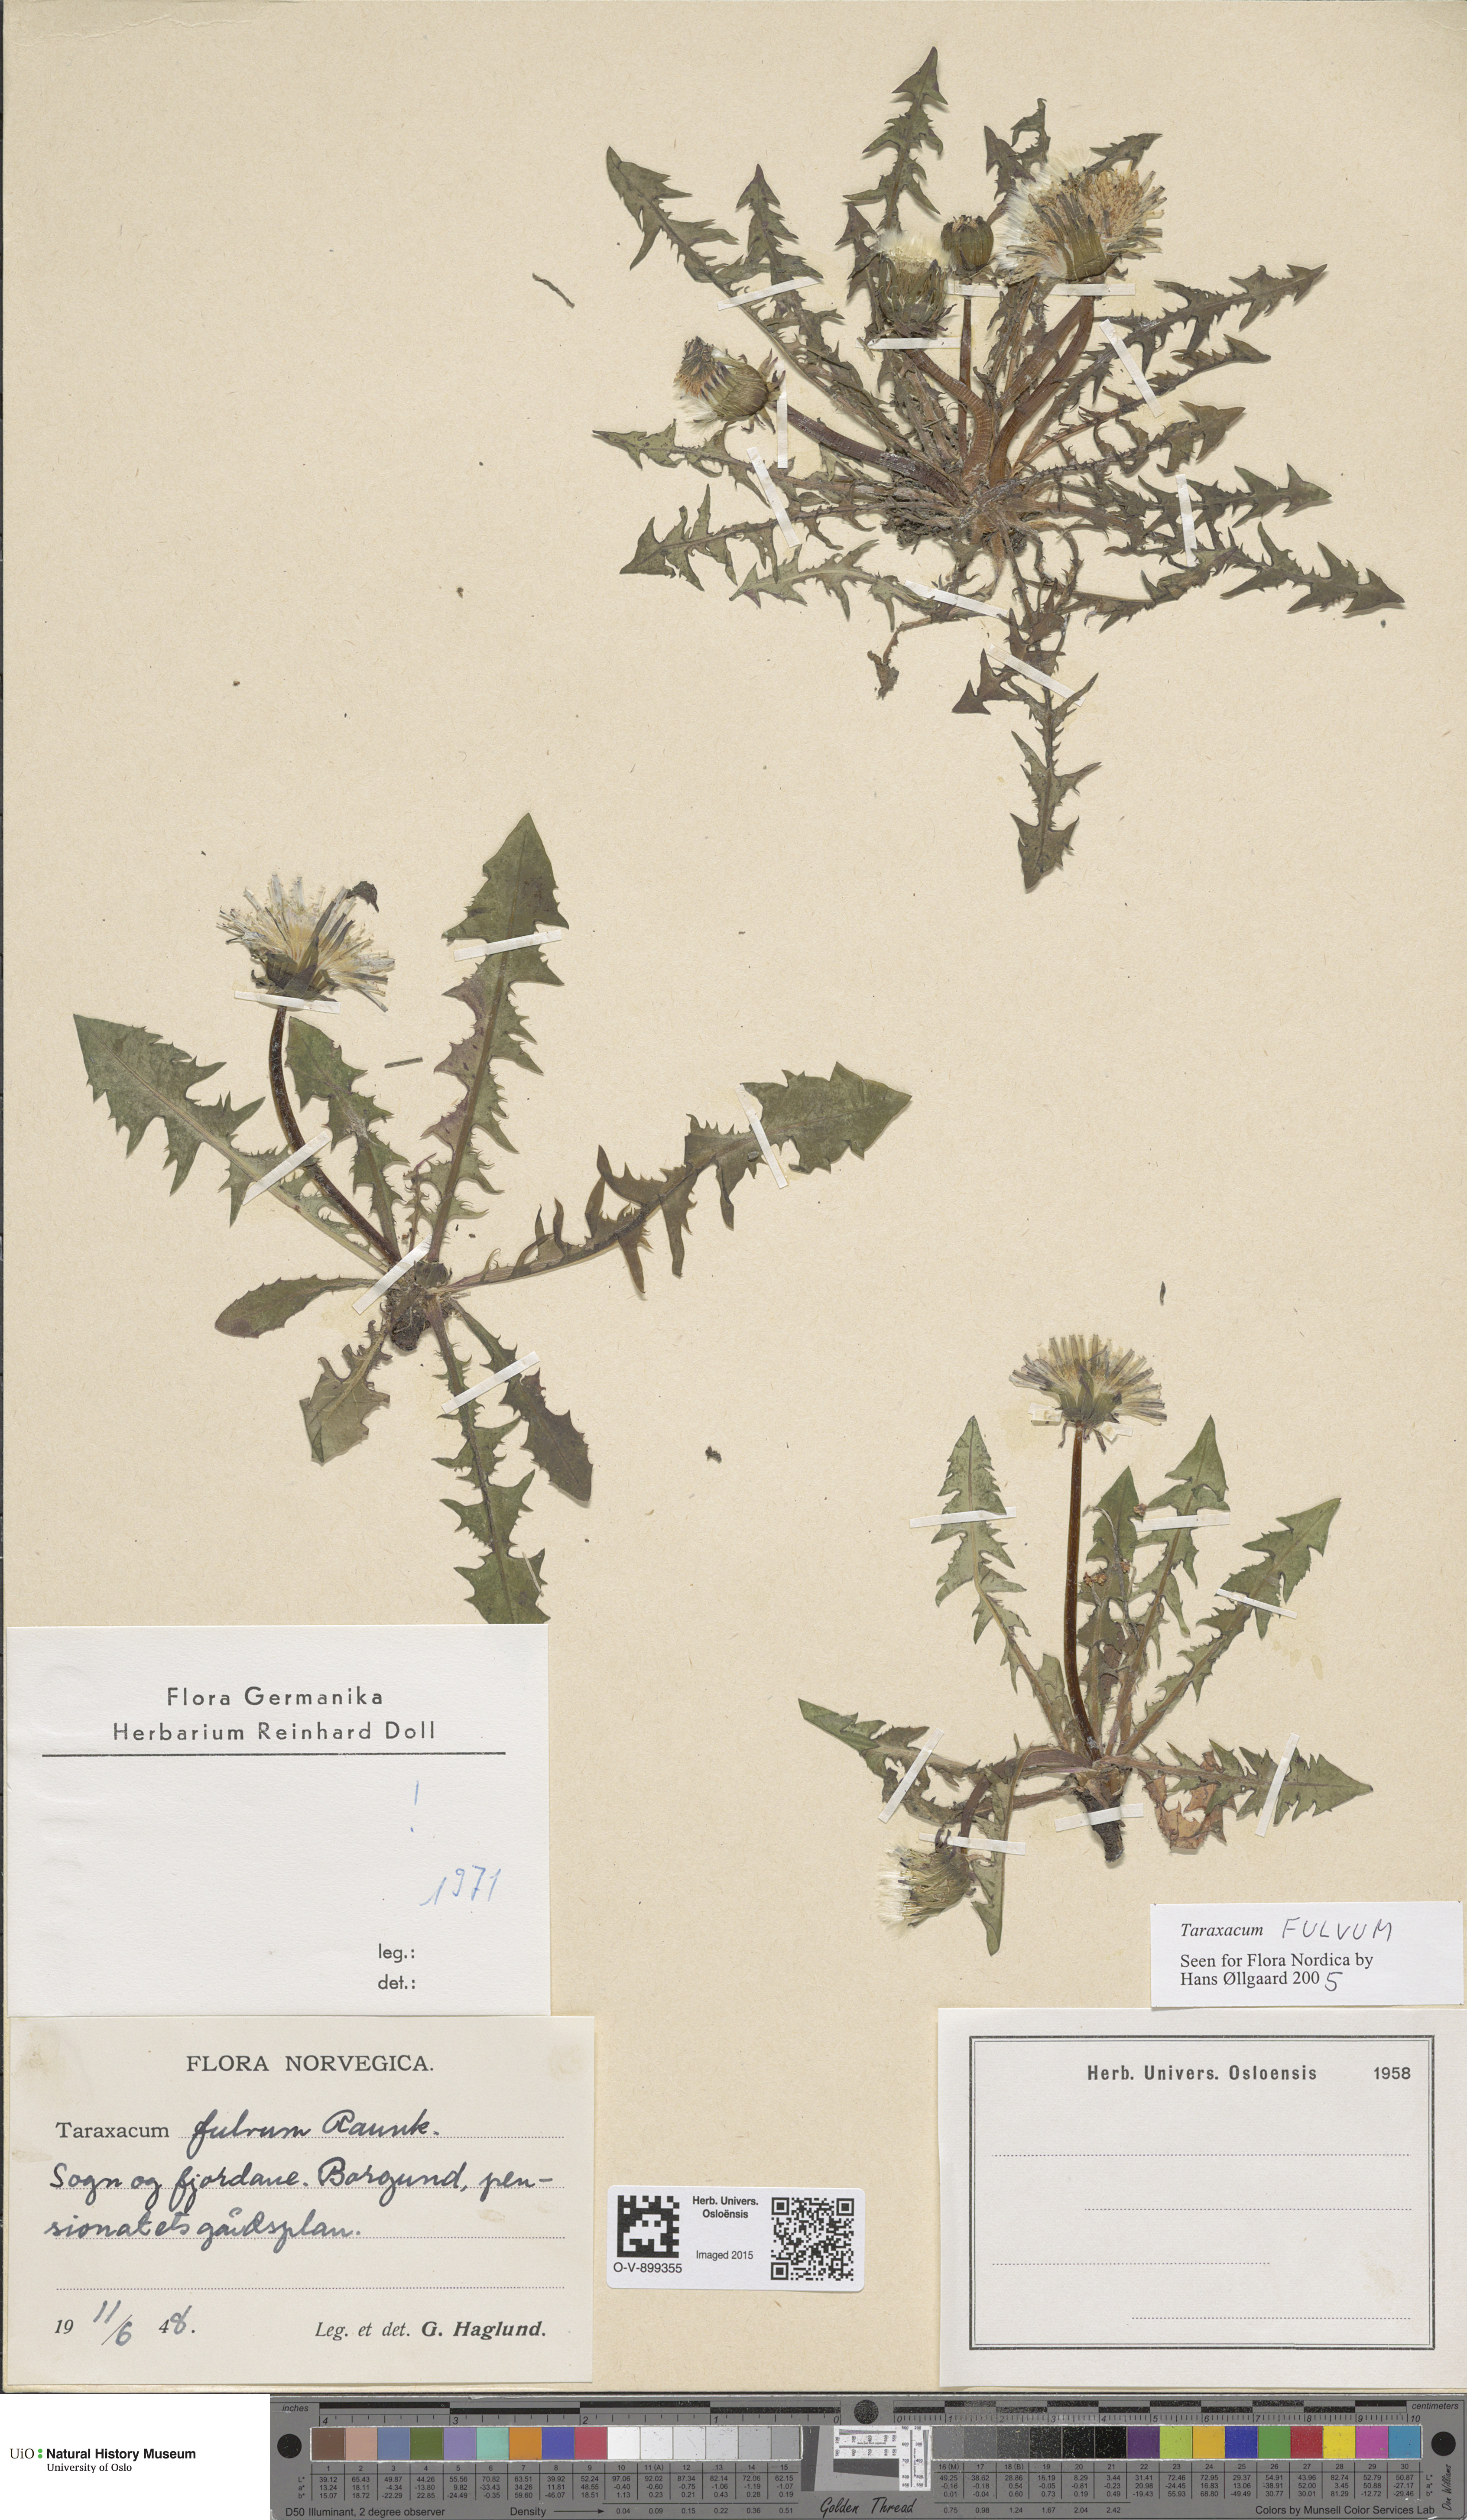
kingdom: Plantae
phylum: Tracheophyta
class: Magnoliopsida
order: Asterales
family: Asteraceae
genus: Taraxacum
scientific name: Taraxacum fulvum
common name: Cinnamon-fruited dandelion
